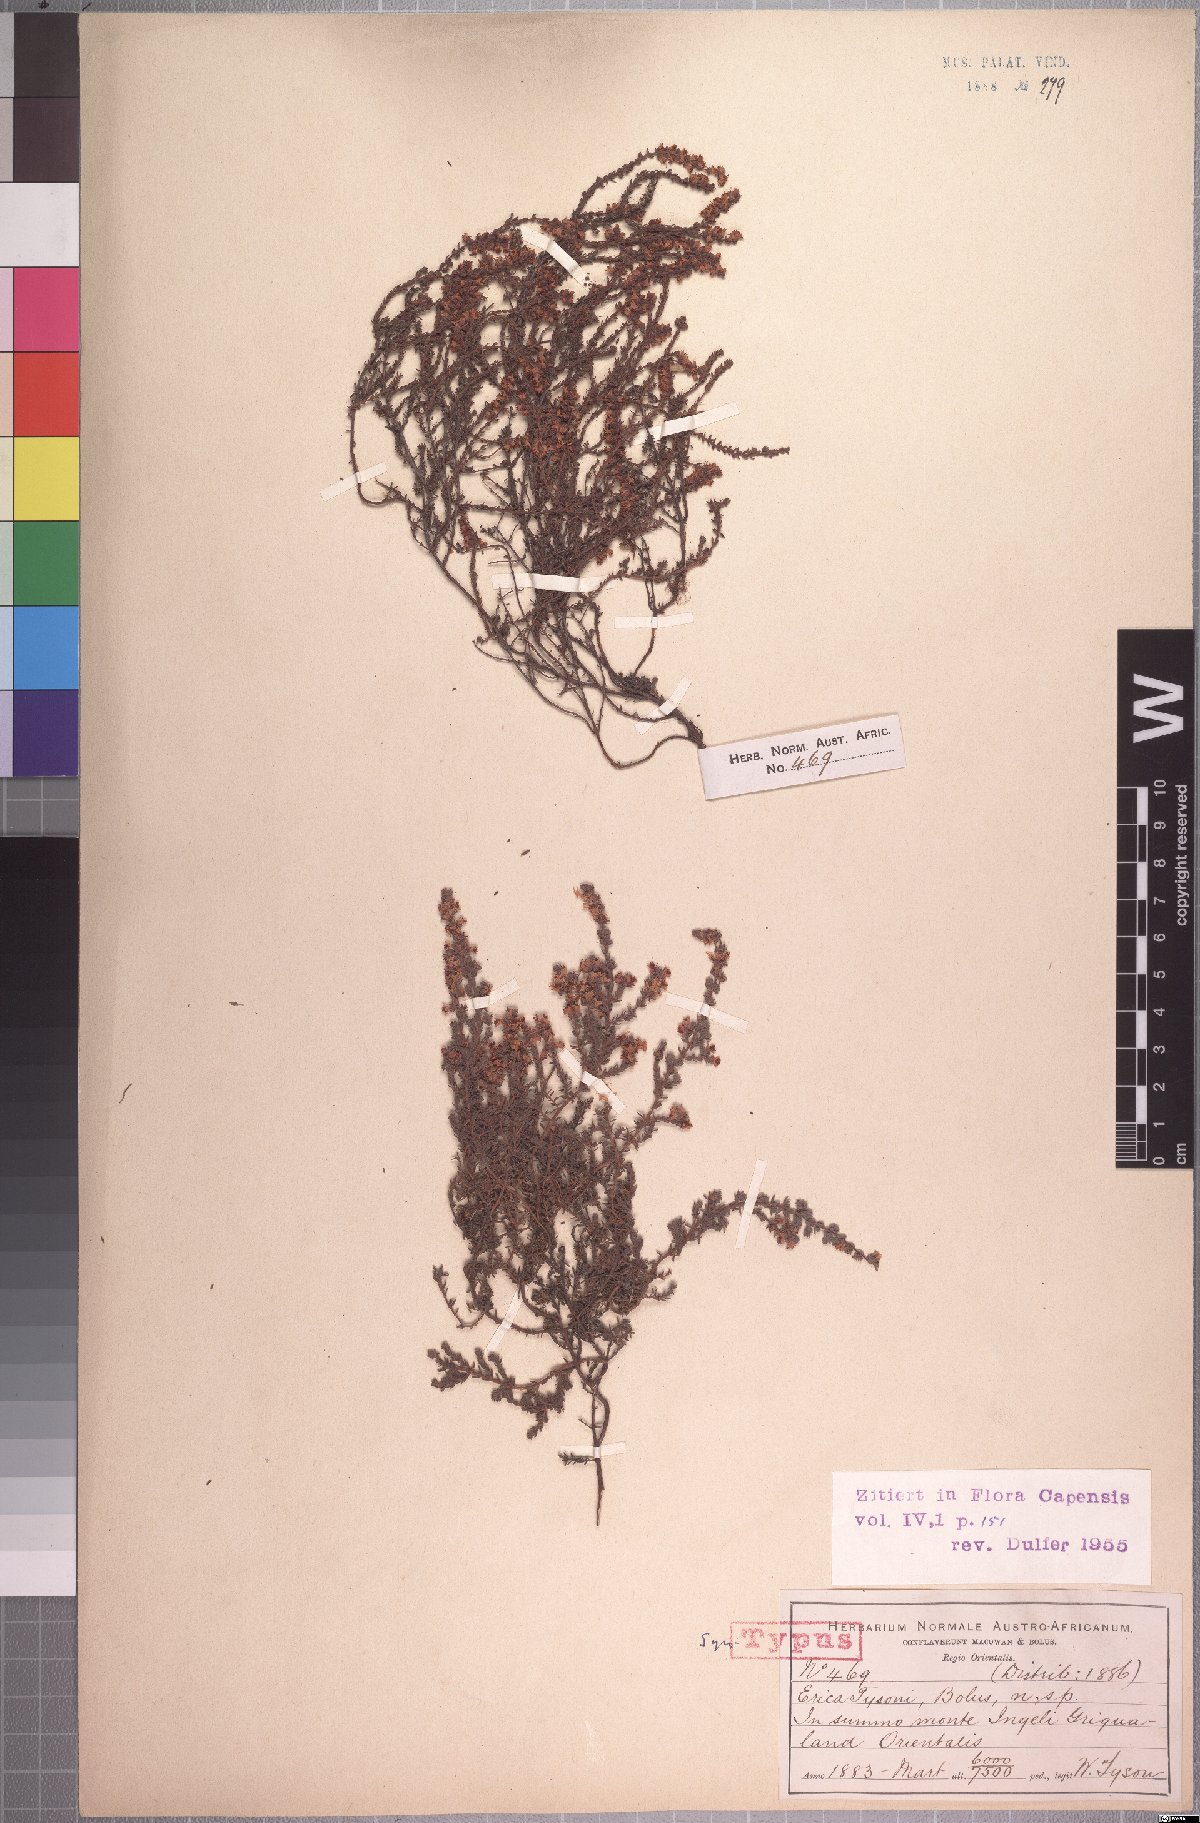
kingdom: Plantae
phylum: Tracheophyta
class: Magnoliopsida
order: Ericales
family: Ericaceae
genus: Erica
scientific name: Erica tysonii
